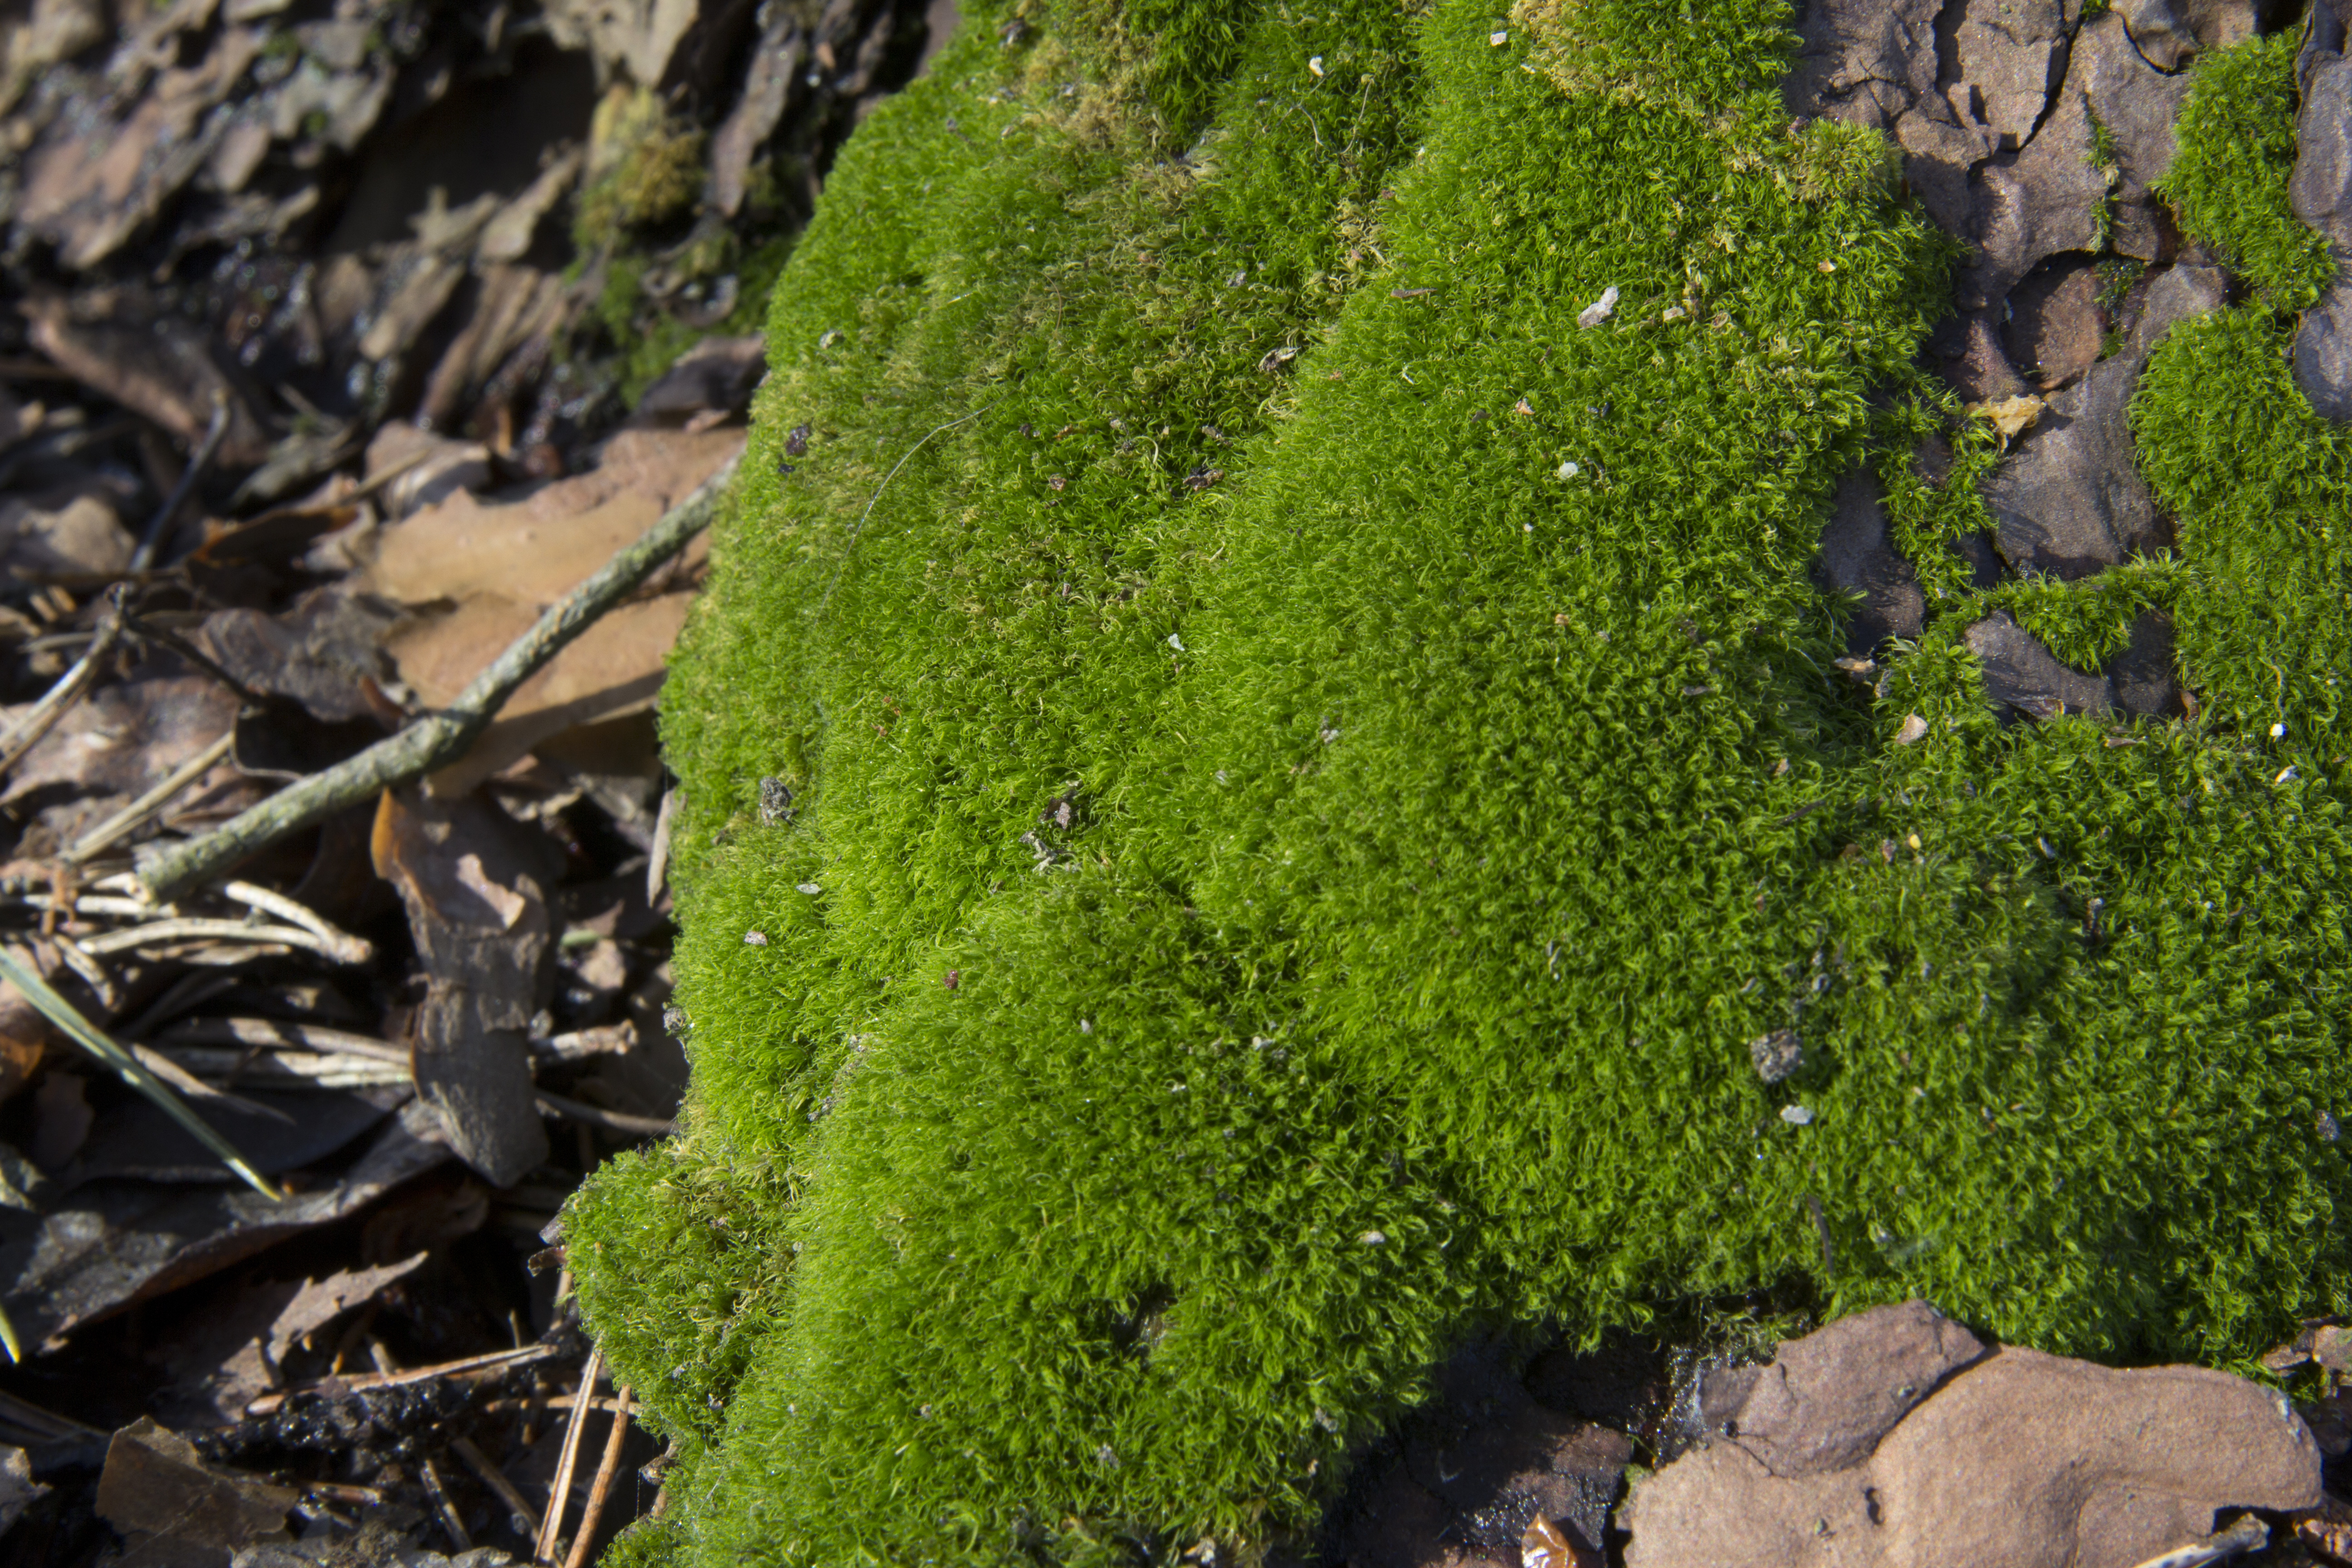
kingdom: Plantae
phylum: Bryophyta
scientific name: Bryophyta
